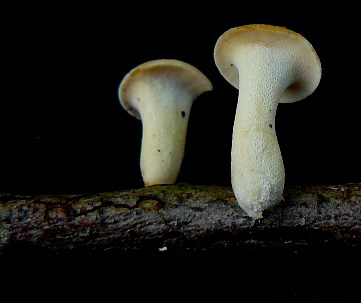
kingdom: Fungi
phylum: Basidiomycota
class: Agaricomycetes
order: Polyporales
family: Polyporaceae
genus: Lentinus
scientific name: Lentinus substrictus
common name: forårs-stilkporesvamp
